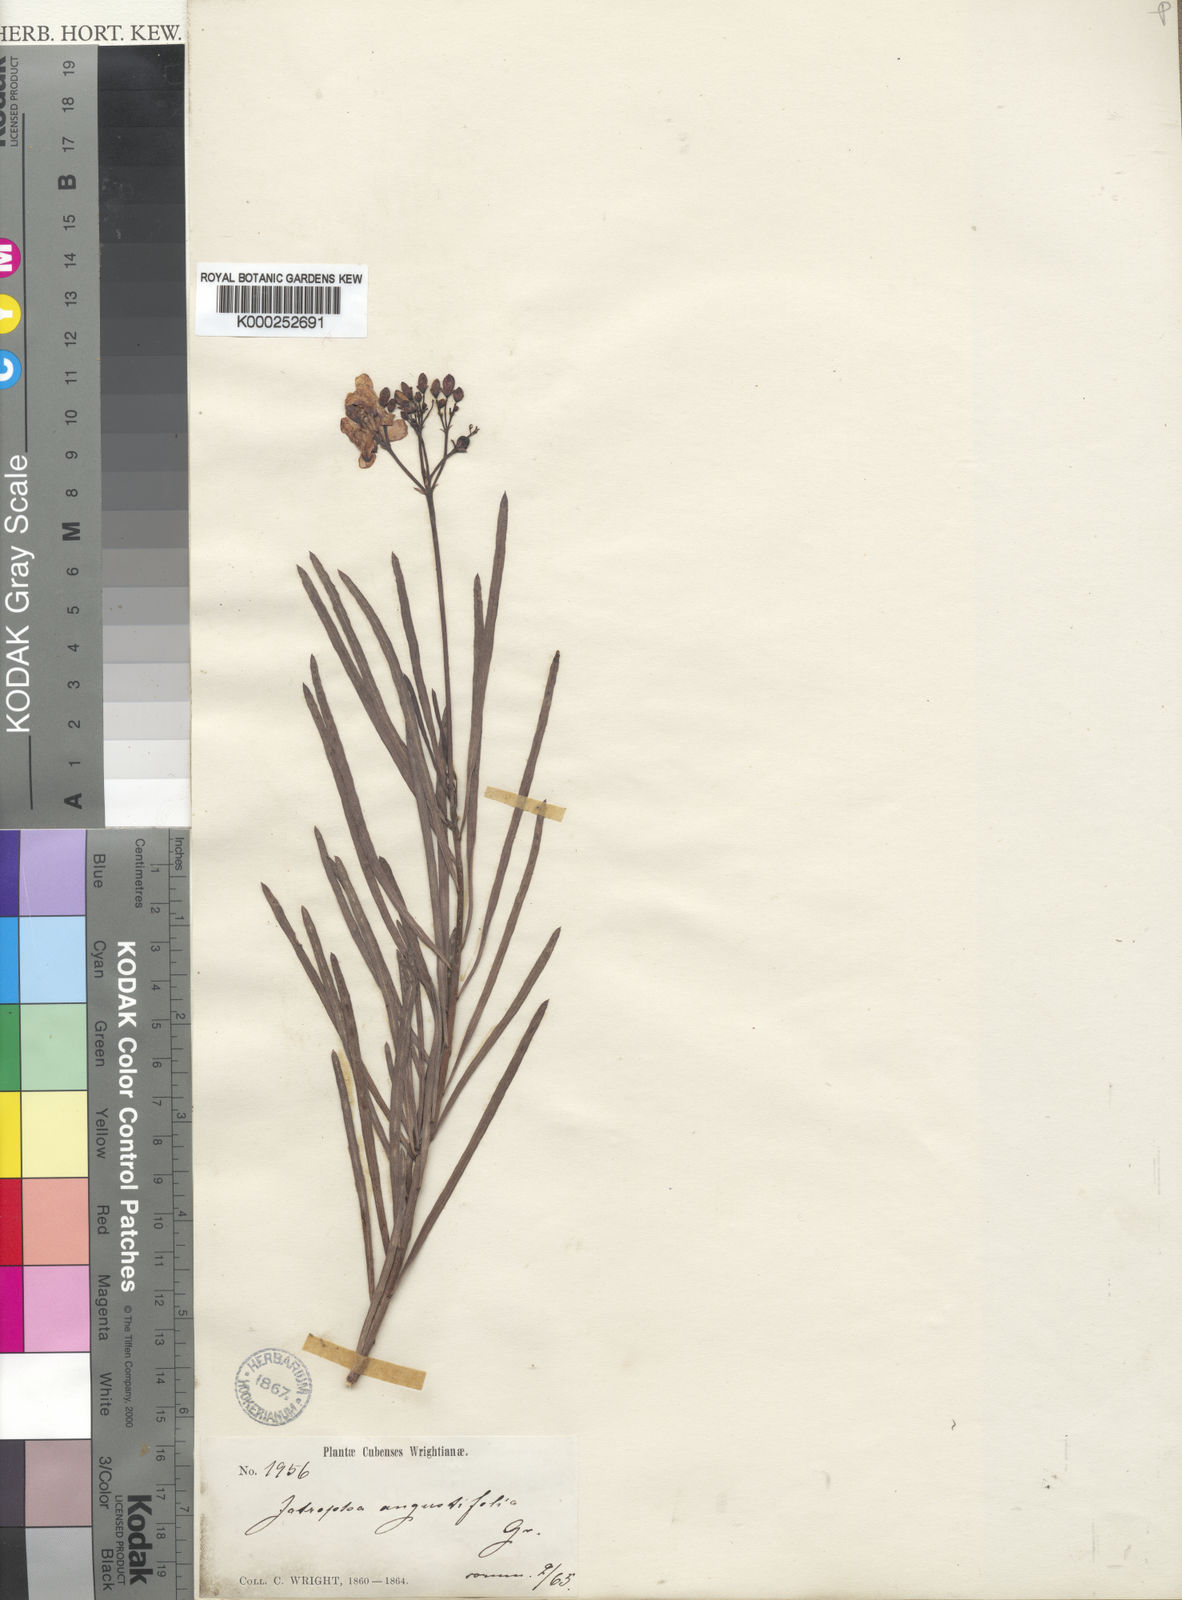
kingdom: Plantae
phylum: Tracheophyta
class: Magnoliopsida
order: Malpighiales
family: Euphorbiaceae
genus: Jatropha
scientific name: Jatropha angustifolia
